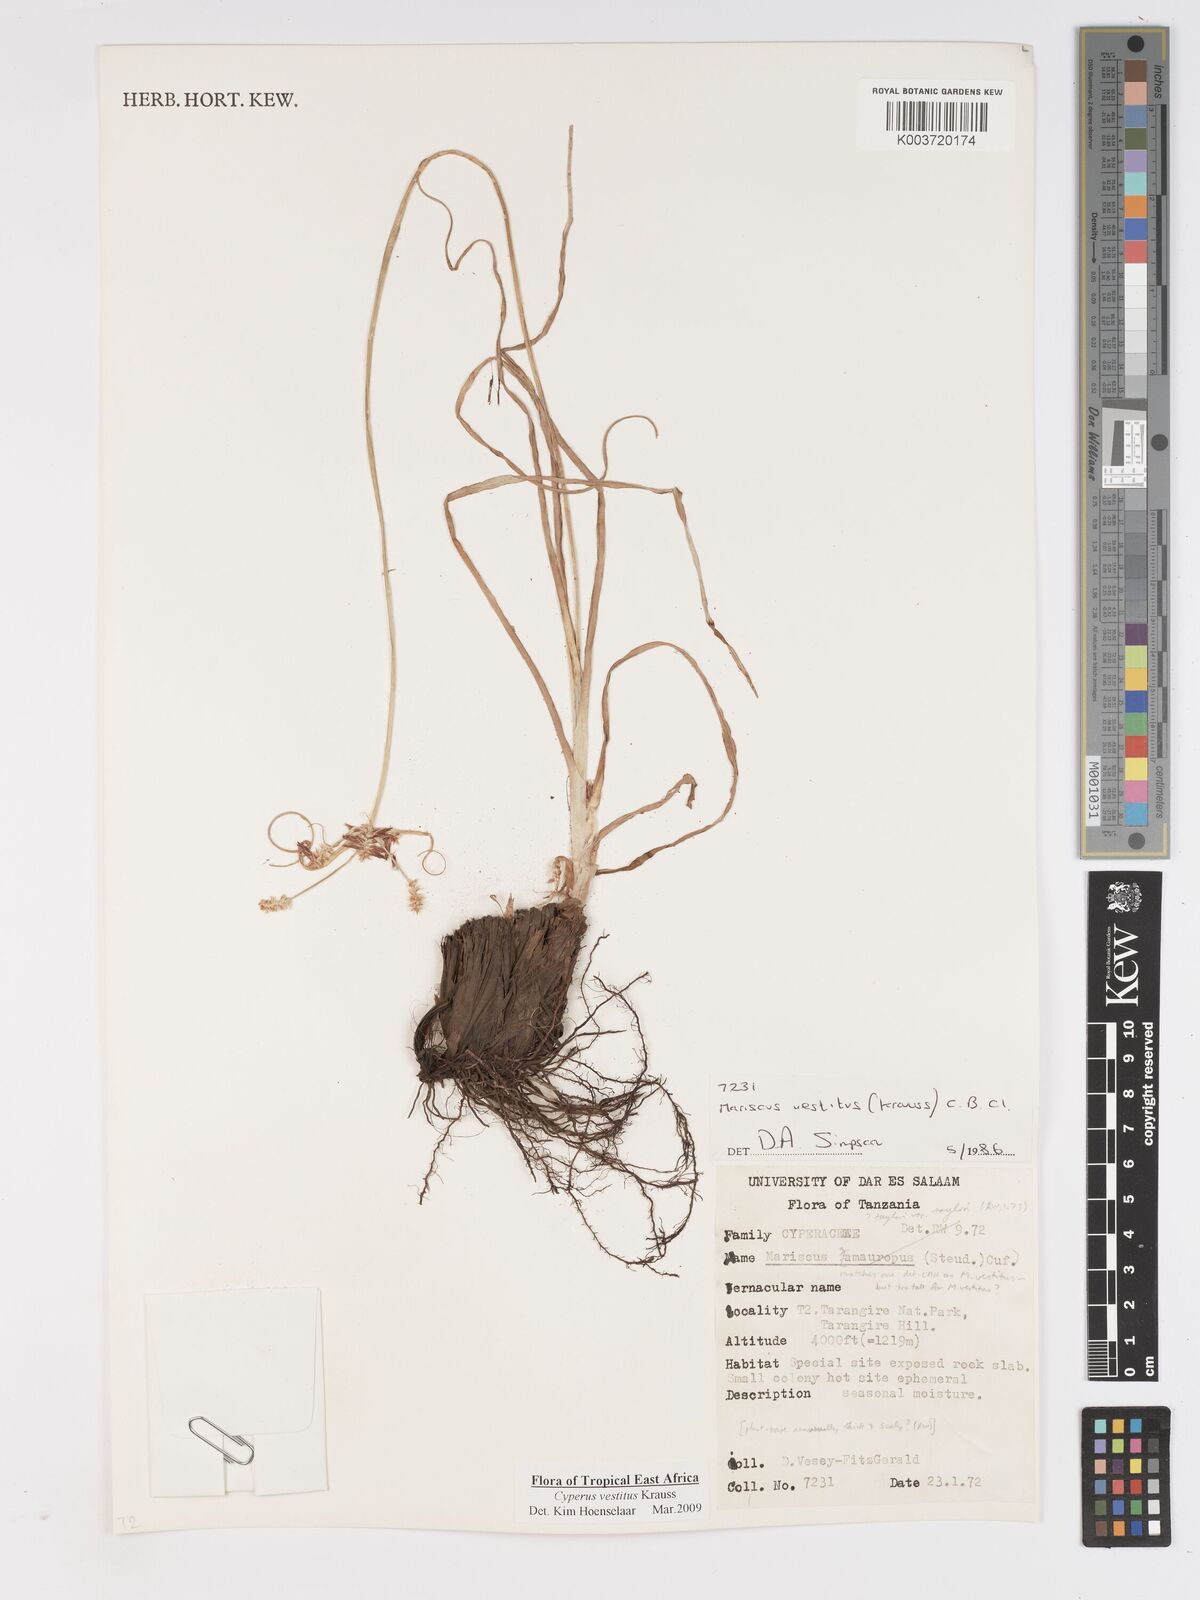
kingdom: Plantae
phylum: Tracheophyta
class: Liliopsida
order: Poales
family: Cyperaceae
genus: Cyperus
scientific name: Cyperus vestitus
